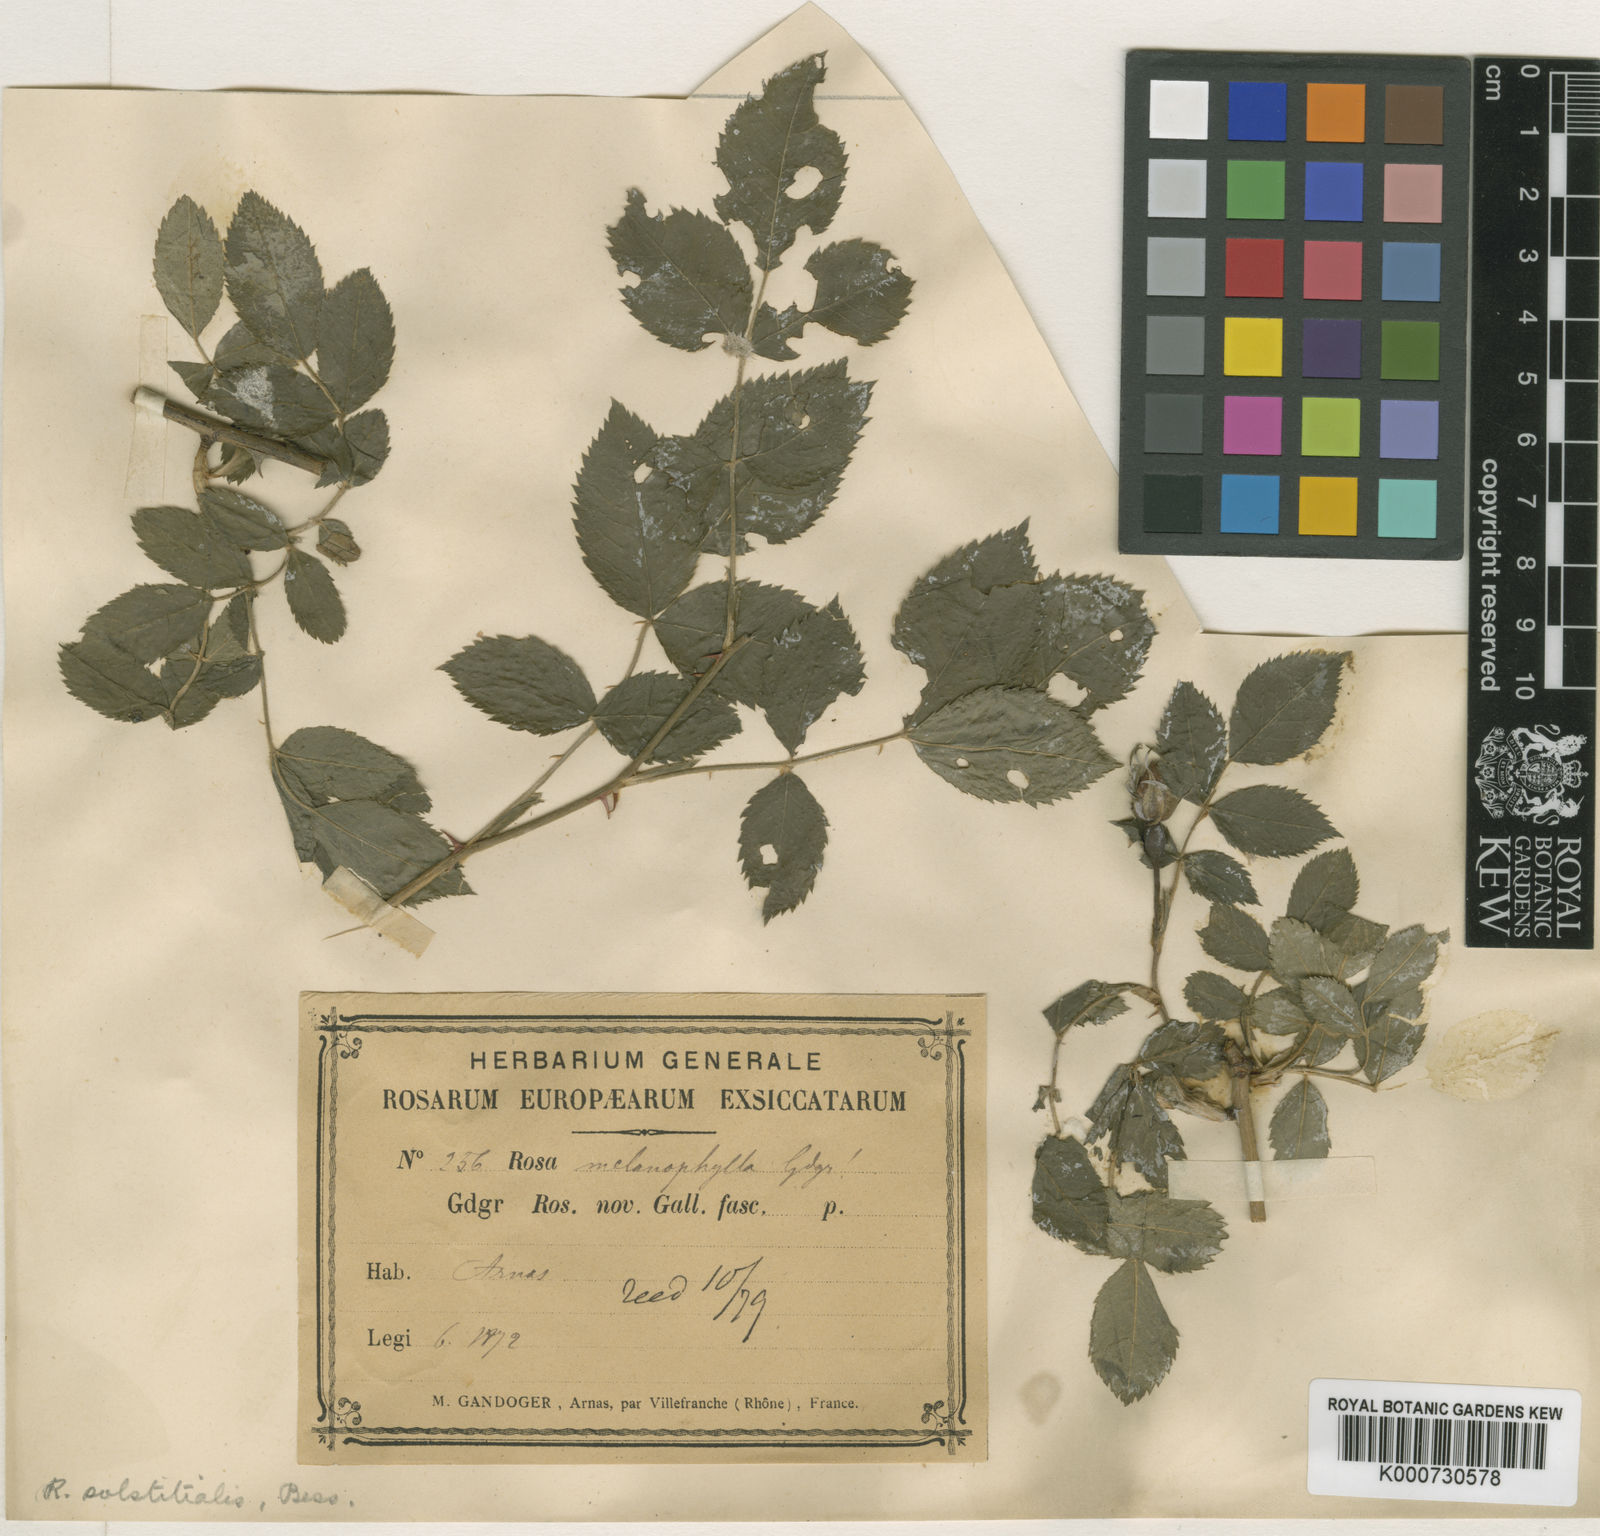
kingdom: Plantae
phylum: Tracheophyta
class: Magnoliopsida
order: Rosales
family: Rosaceae
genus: Rosa
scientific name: Rosa
